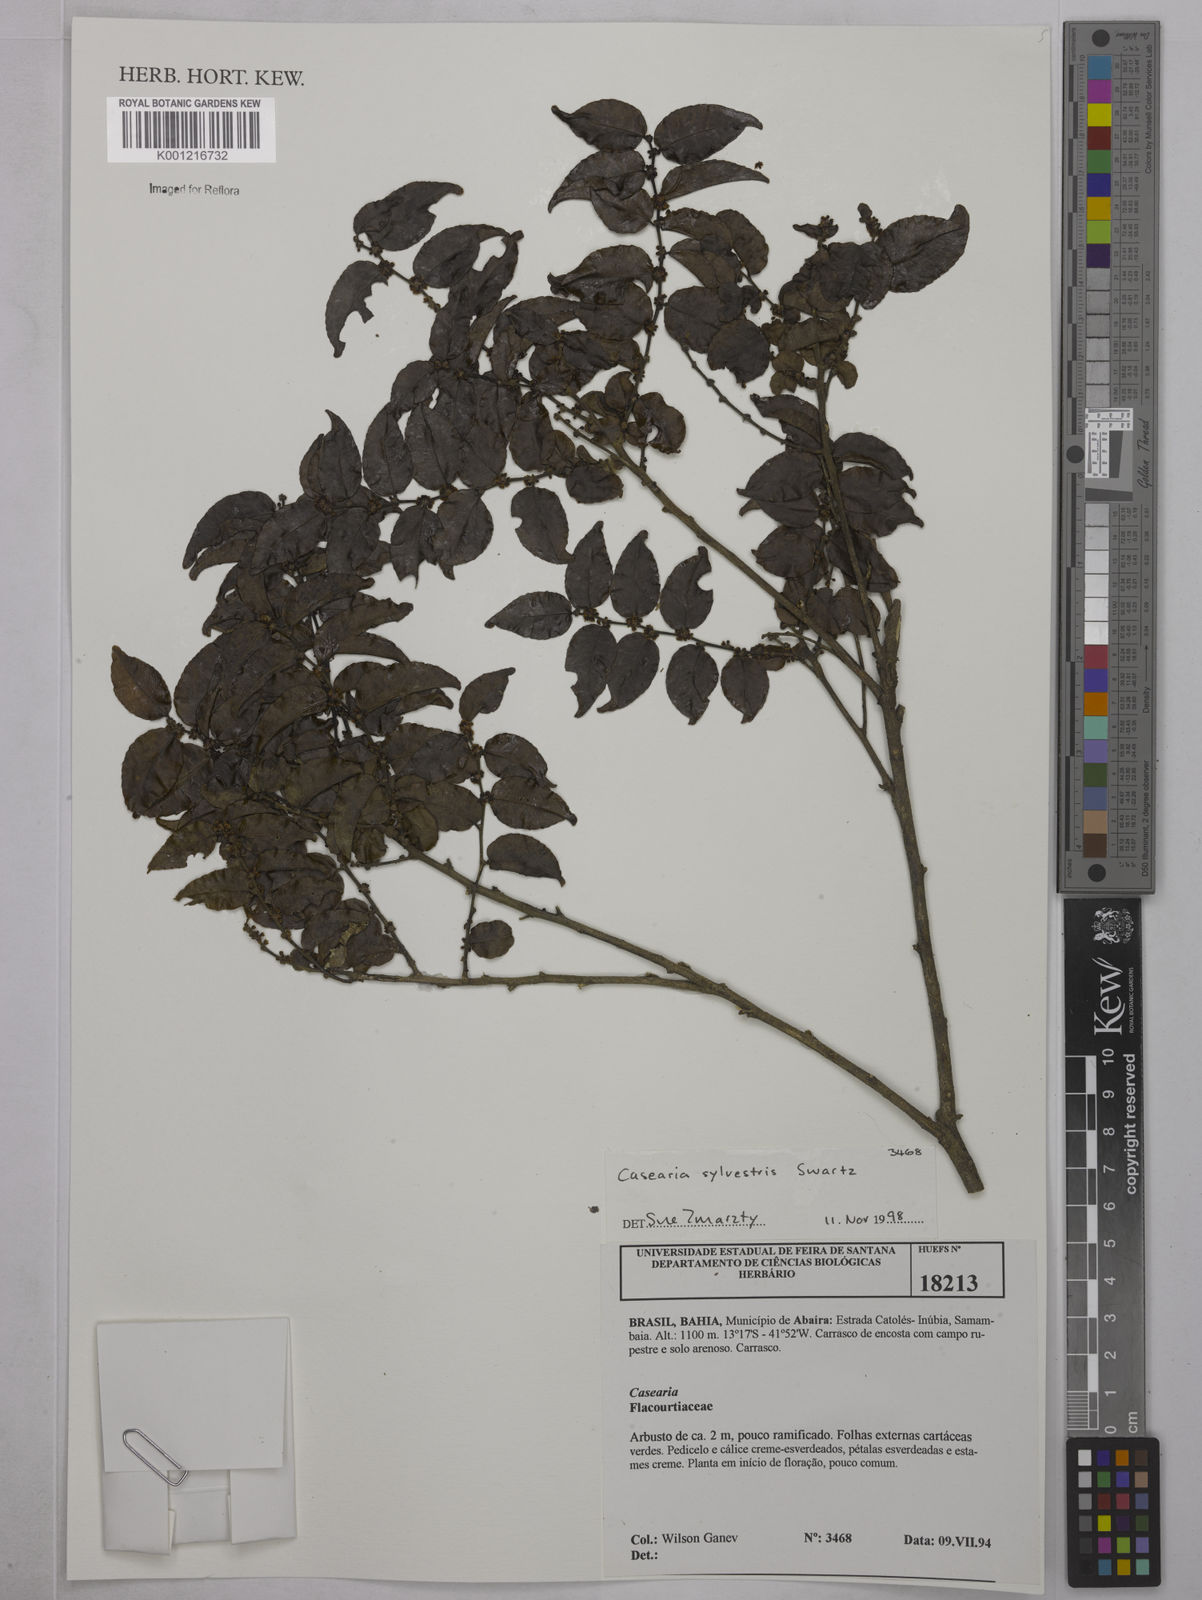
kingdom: Plantae
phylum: Tracheophyta
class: Magnoliopsida
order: Malpighiales
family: Salicaceae
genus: Casearia
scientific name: Casearia sylvestris
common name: Wild sage
